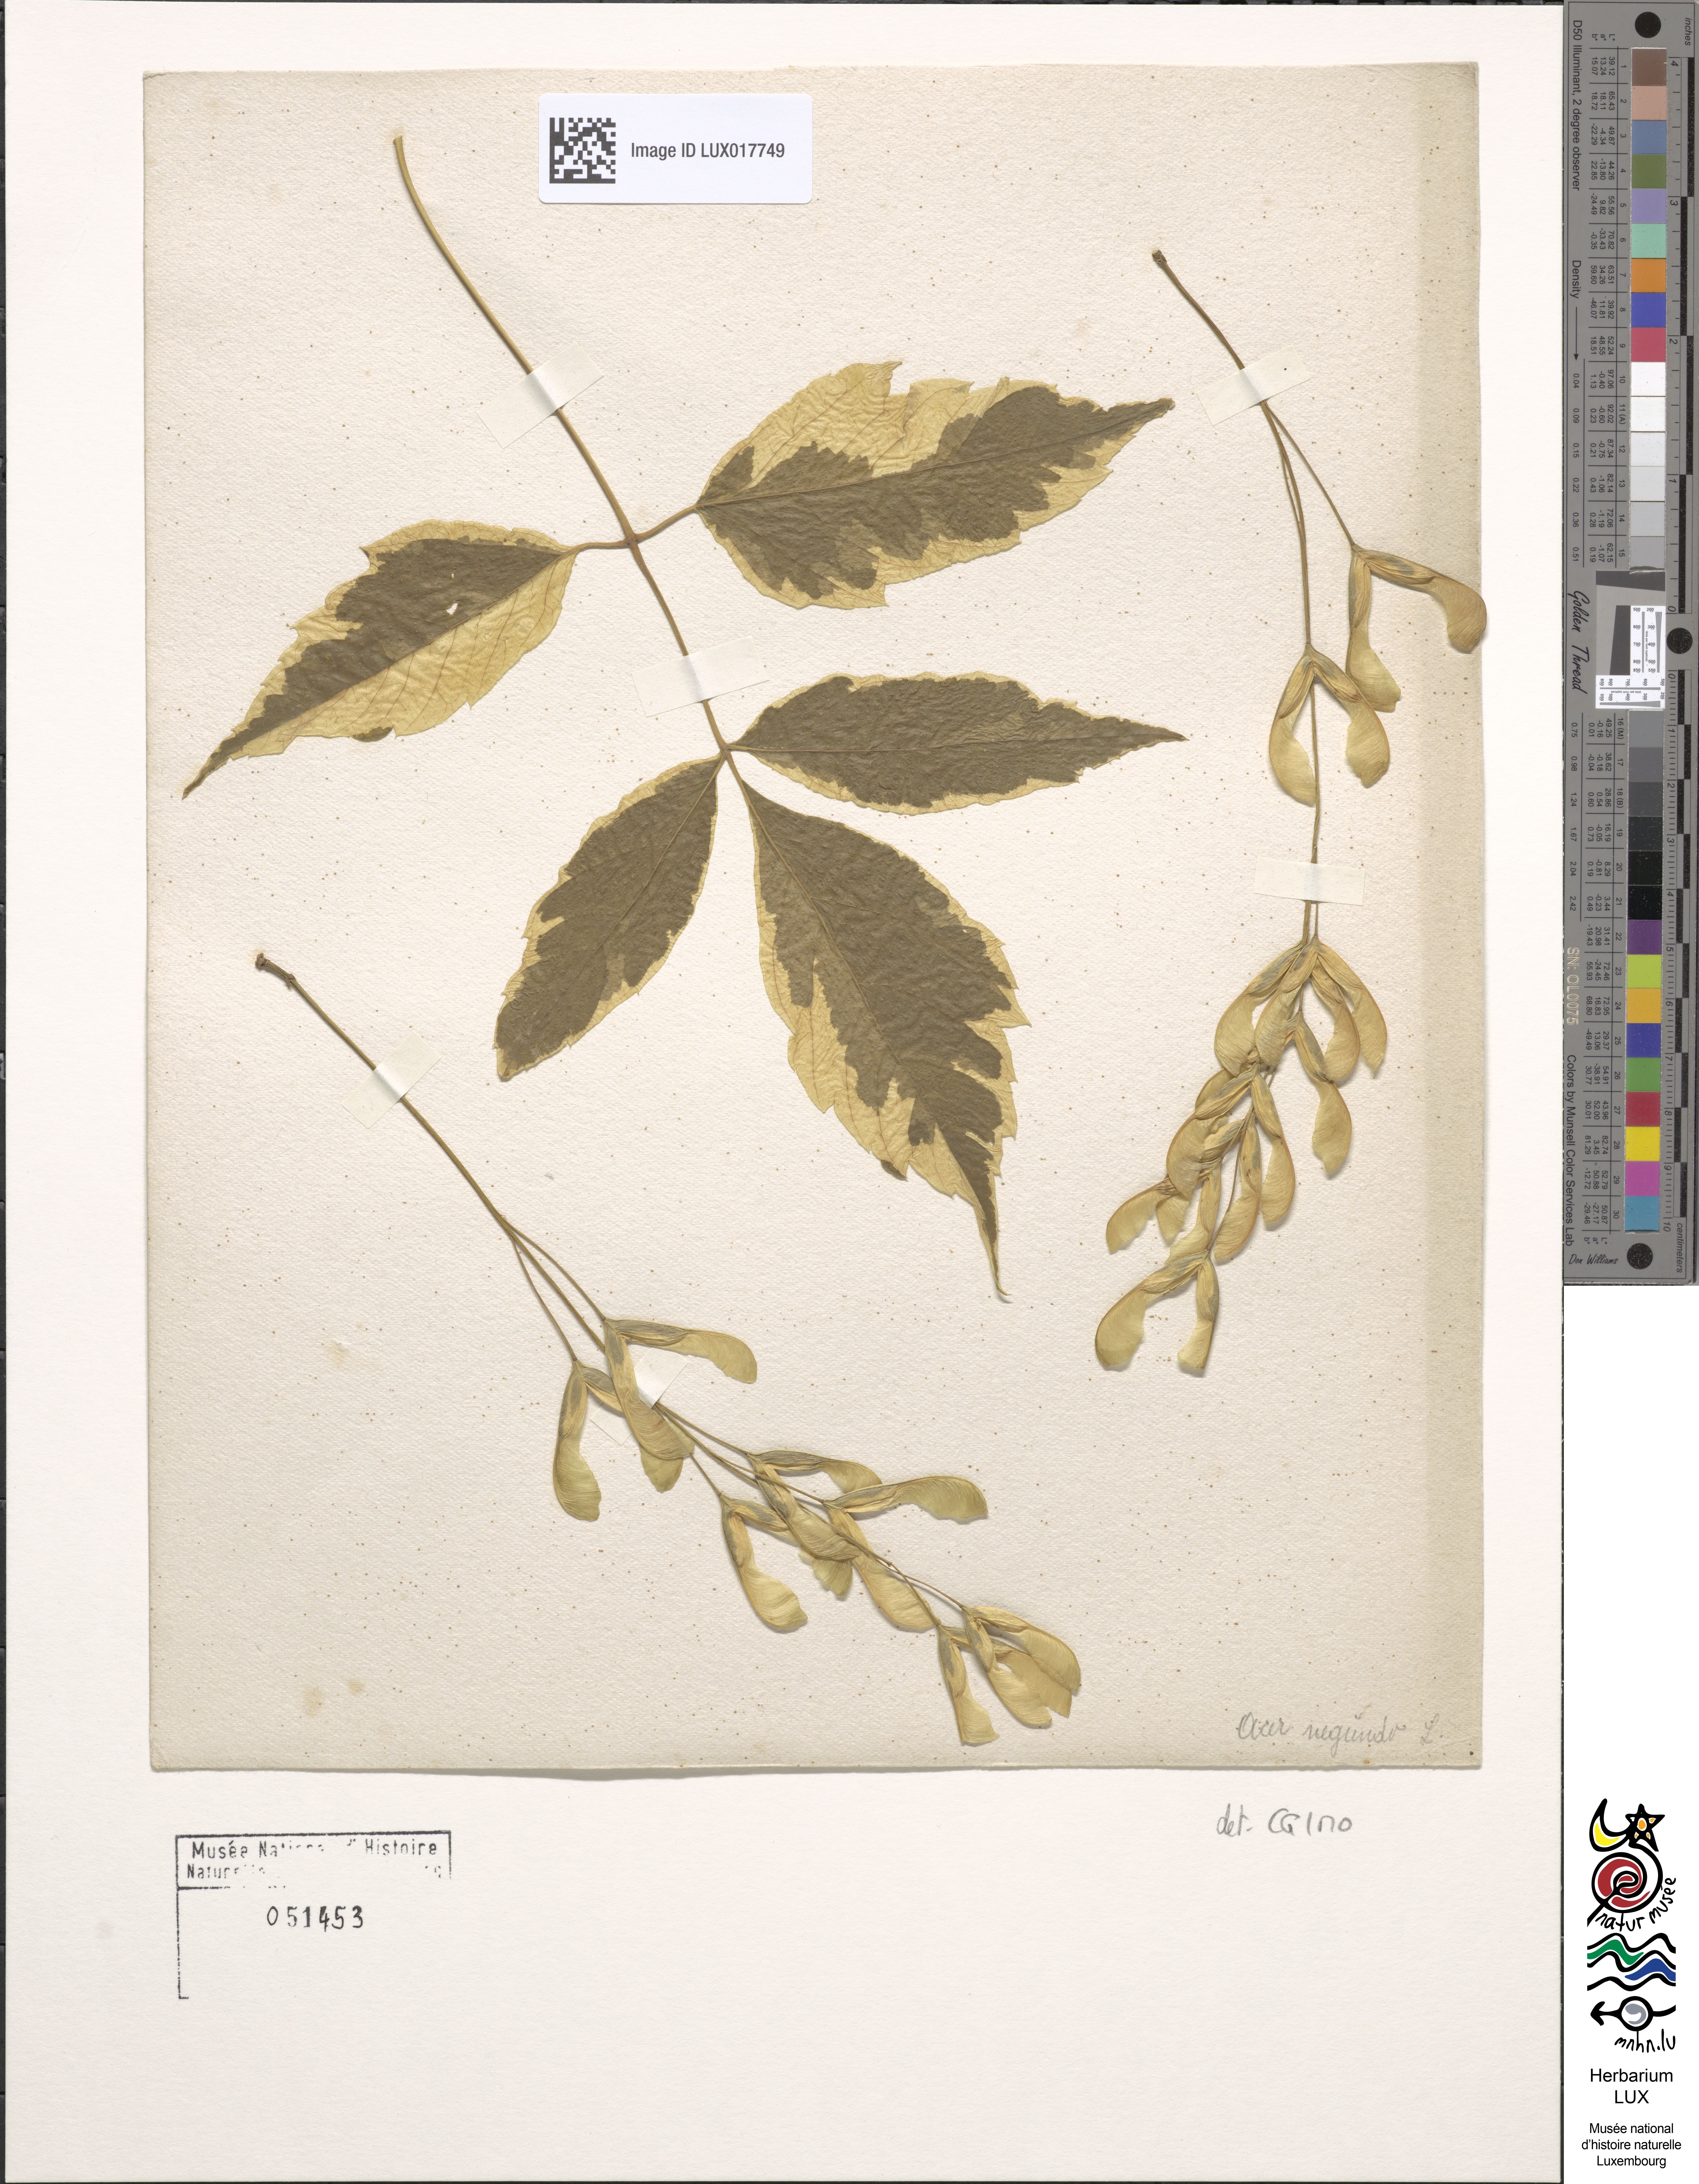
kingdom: Plantae
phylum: Tracheophyta
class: Magnoliopsida
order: Sapindales
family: Sapindaceae
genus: Acer
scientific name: Acer negundo
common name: Ashleaf maple
